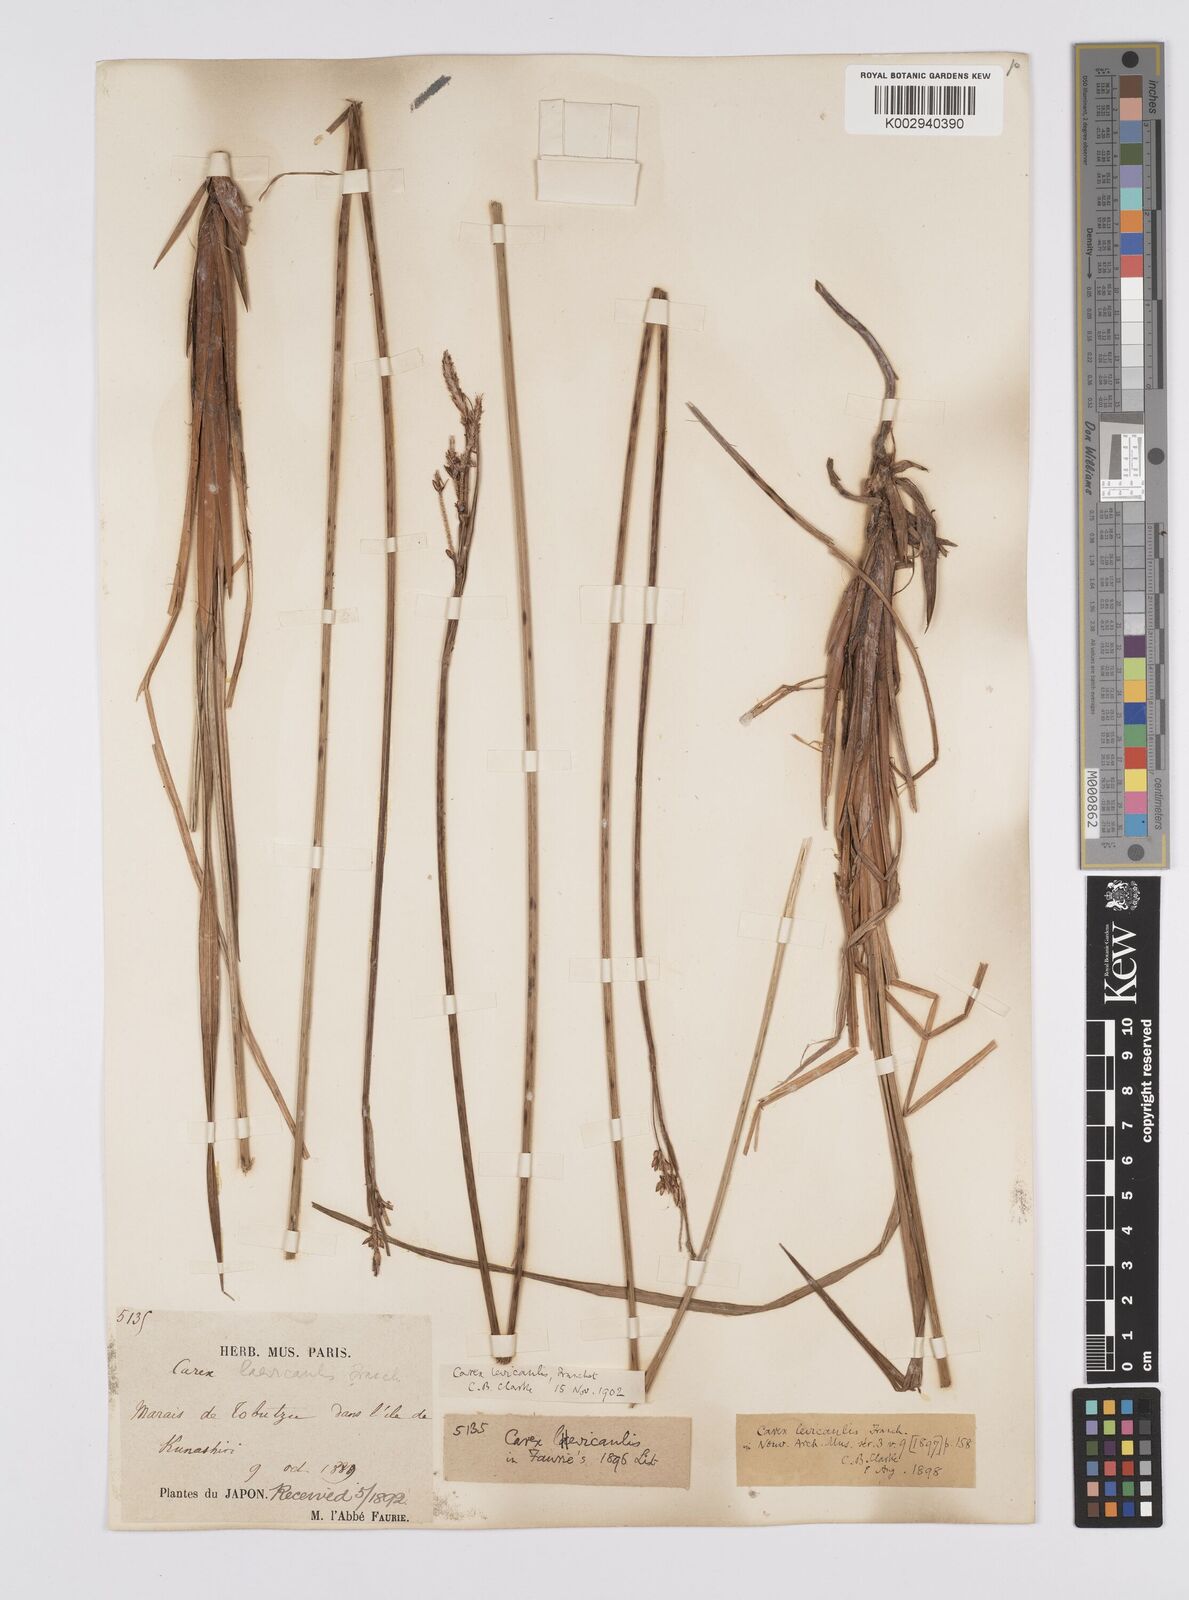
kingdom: Plantae
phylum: Tracheophyta
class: Liliopsida
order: Poales
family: Cyperaceae
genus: Carex
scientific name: Carex middendorffii
